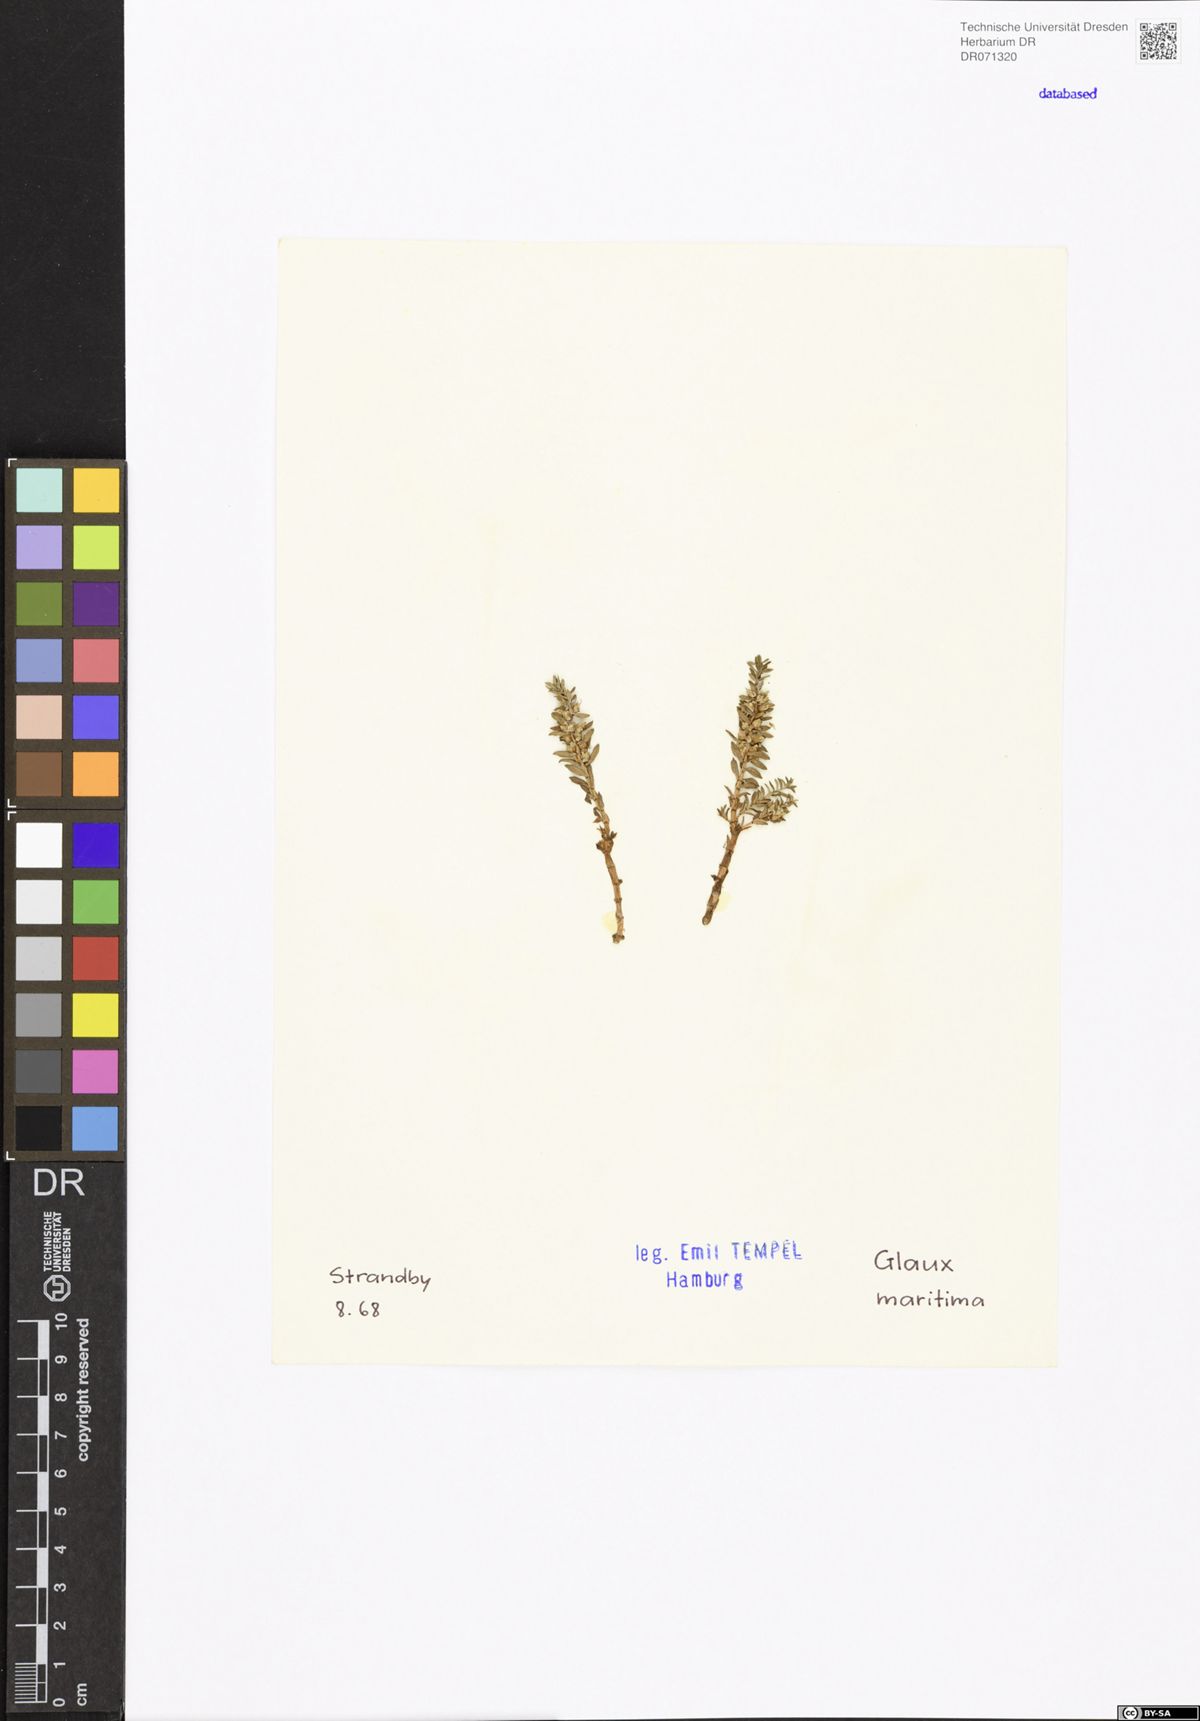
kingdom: Plantae
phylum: Tracheophyta
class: Magnoliopsida
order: Ericales
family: Primulaceae
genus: Lysimachia
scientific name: Lysimachia maritima
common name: Sea milkwort
